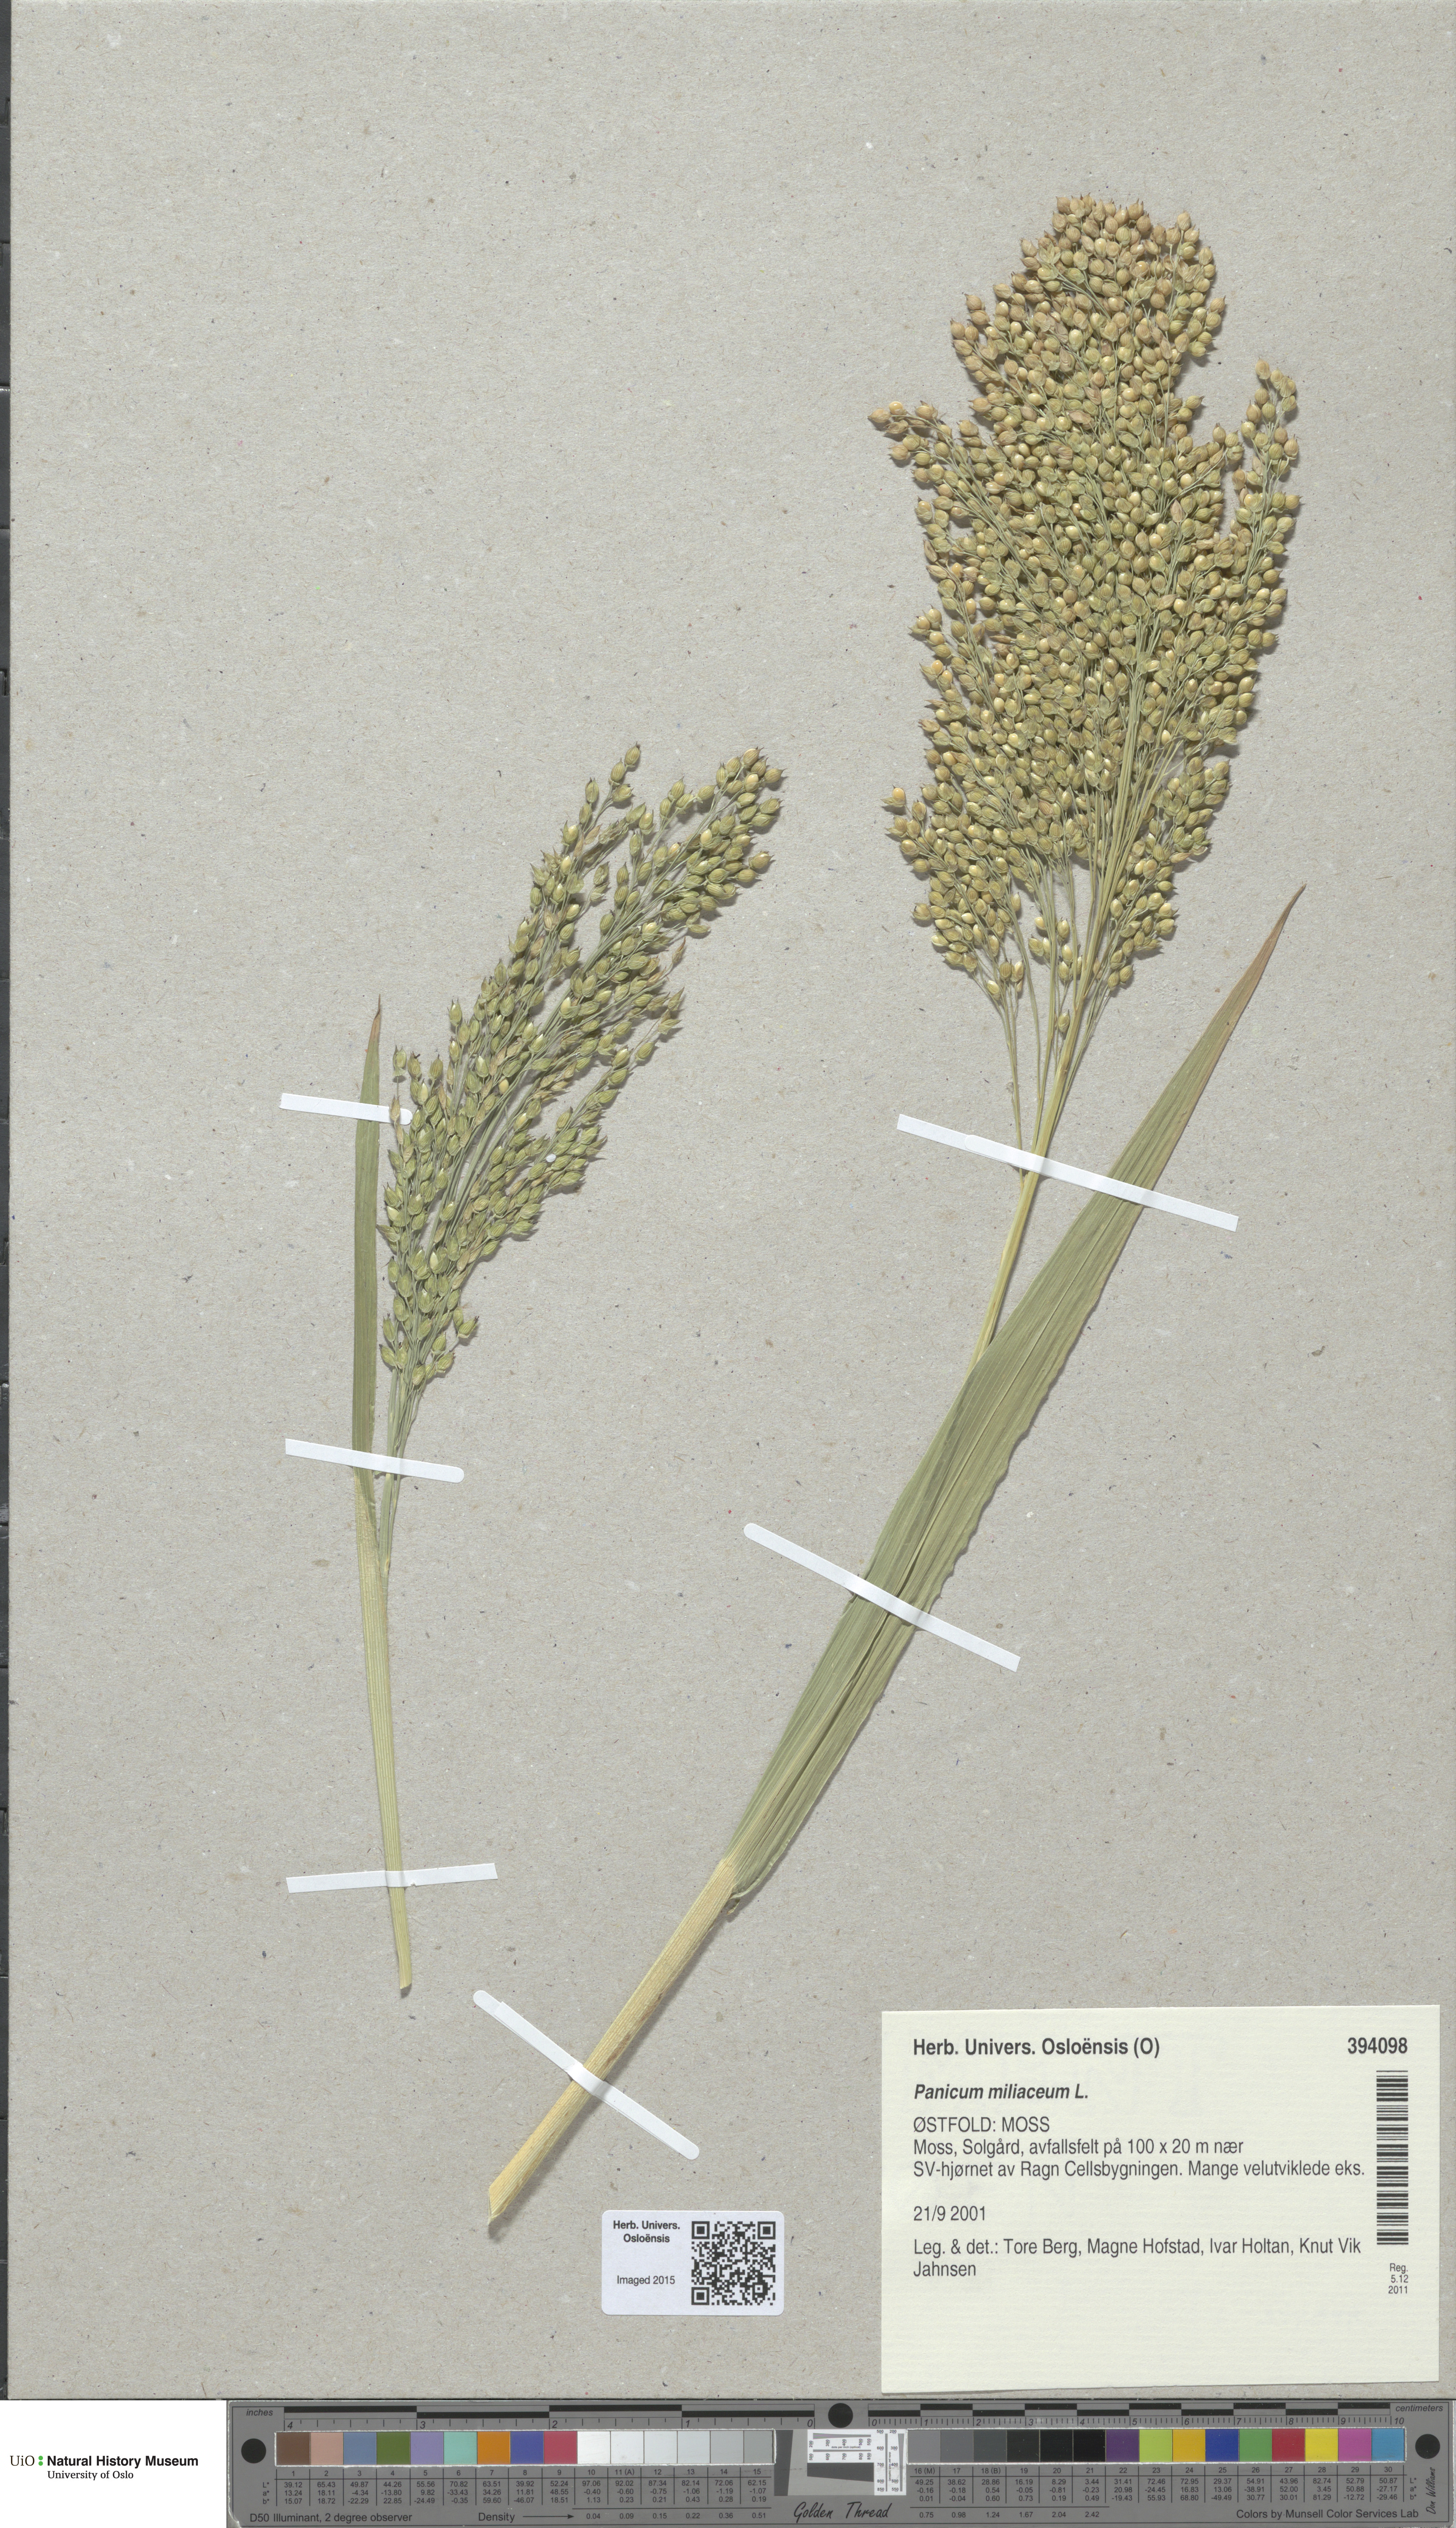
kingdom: Plantae
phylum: Tracheophyta
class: Liliopsida
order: Poales
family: Poaceae
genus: Panicum
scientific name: Panicum miliaceum
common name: Common millet
